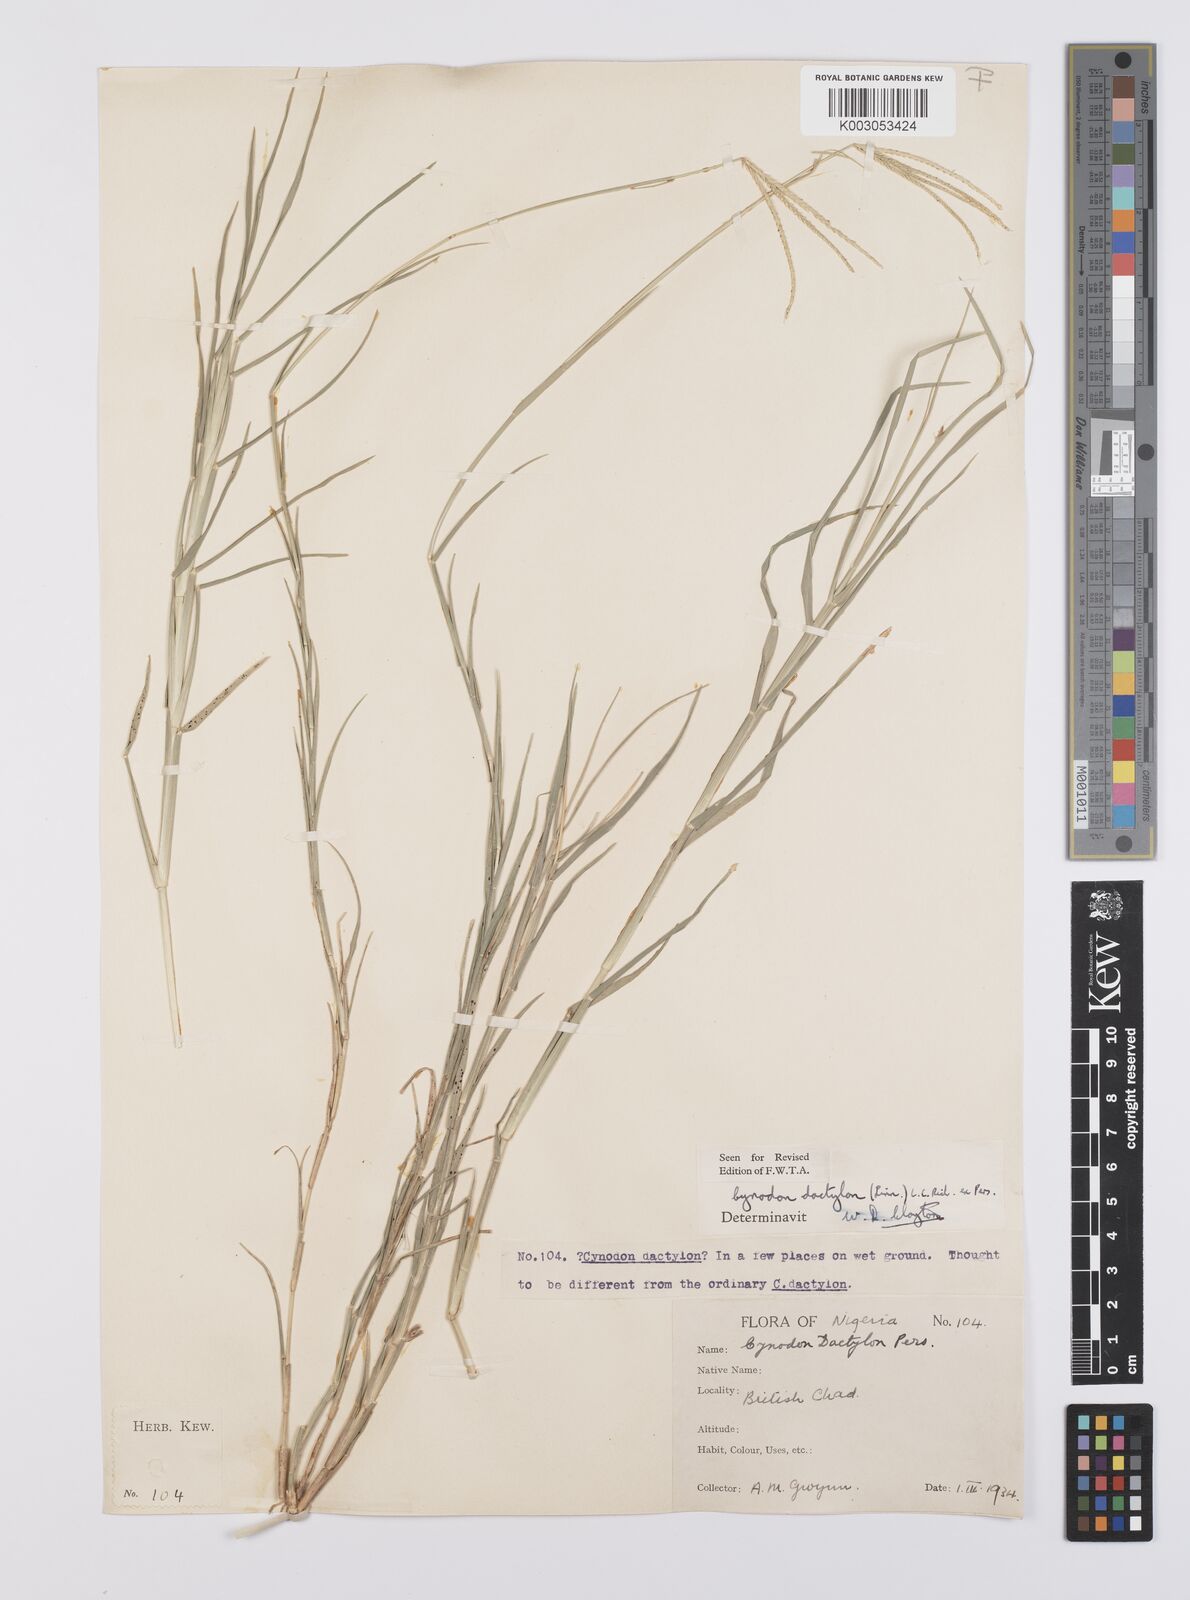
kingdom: Plantae
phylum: Tracheophyta
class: Liliopsida
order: Poales
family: Poaceae
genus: Cynodon
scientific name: Cynodon dactylon
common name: Bermuda grass
